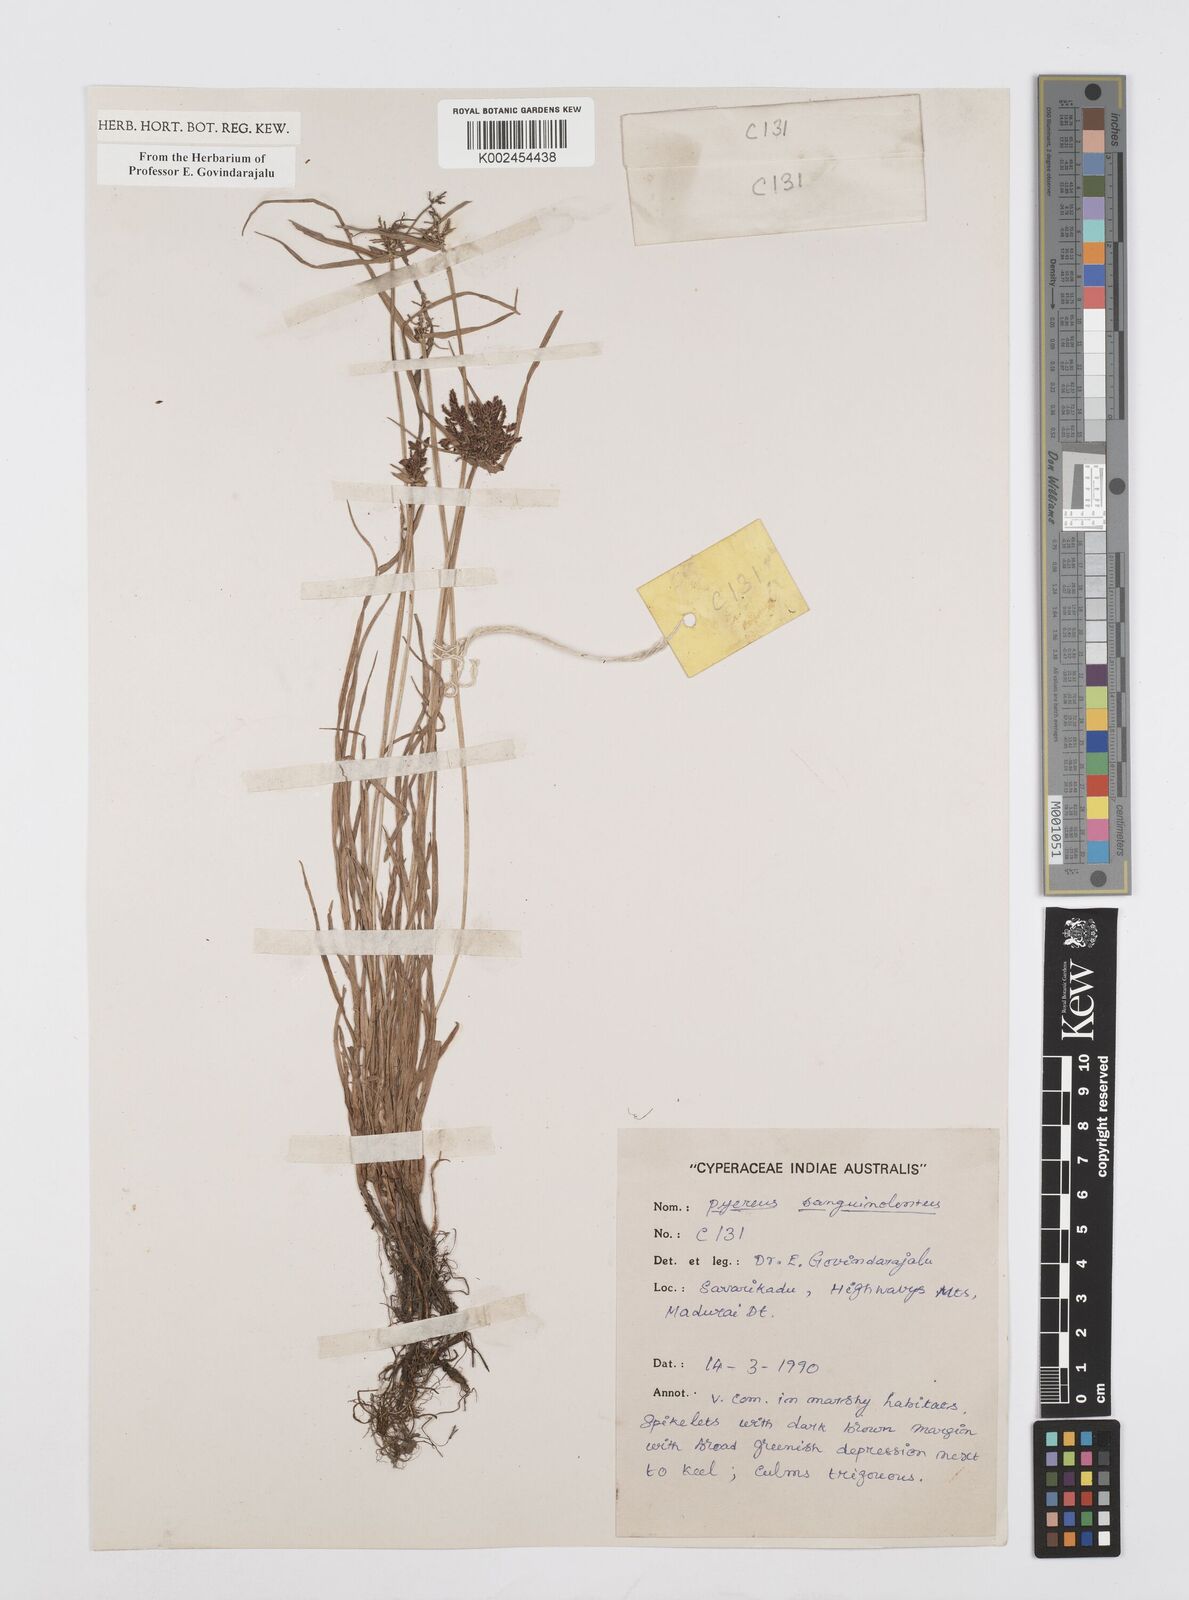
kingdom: Plantae
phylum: Tracheophyta
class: Liliopsida
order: Poales
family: Cyperaceae
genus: Cyperus
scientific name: Cyperus sanguinolentus
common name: Purpleglume flatsedge
